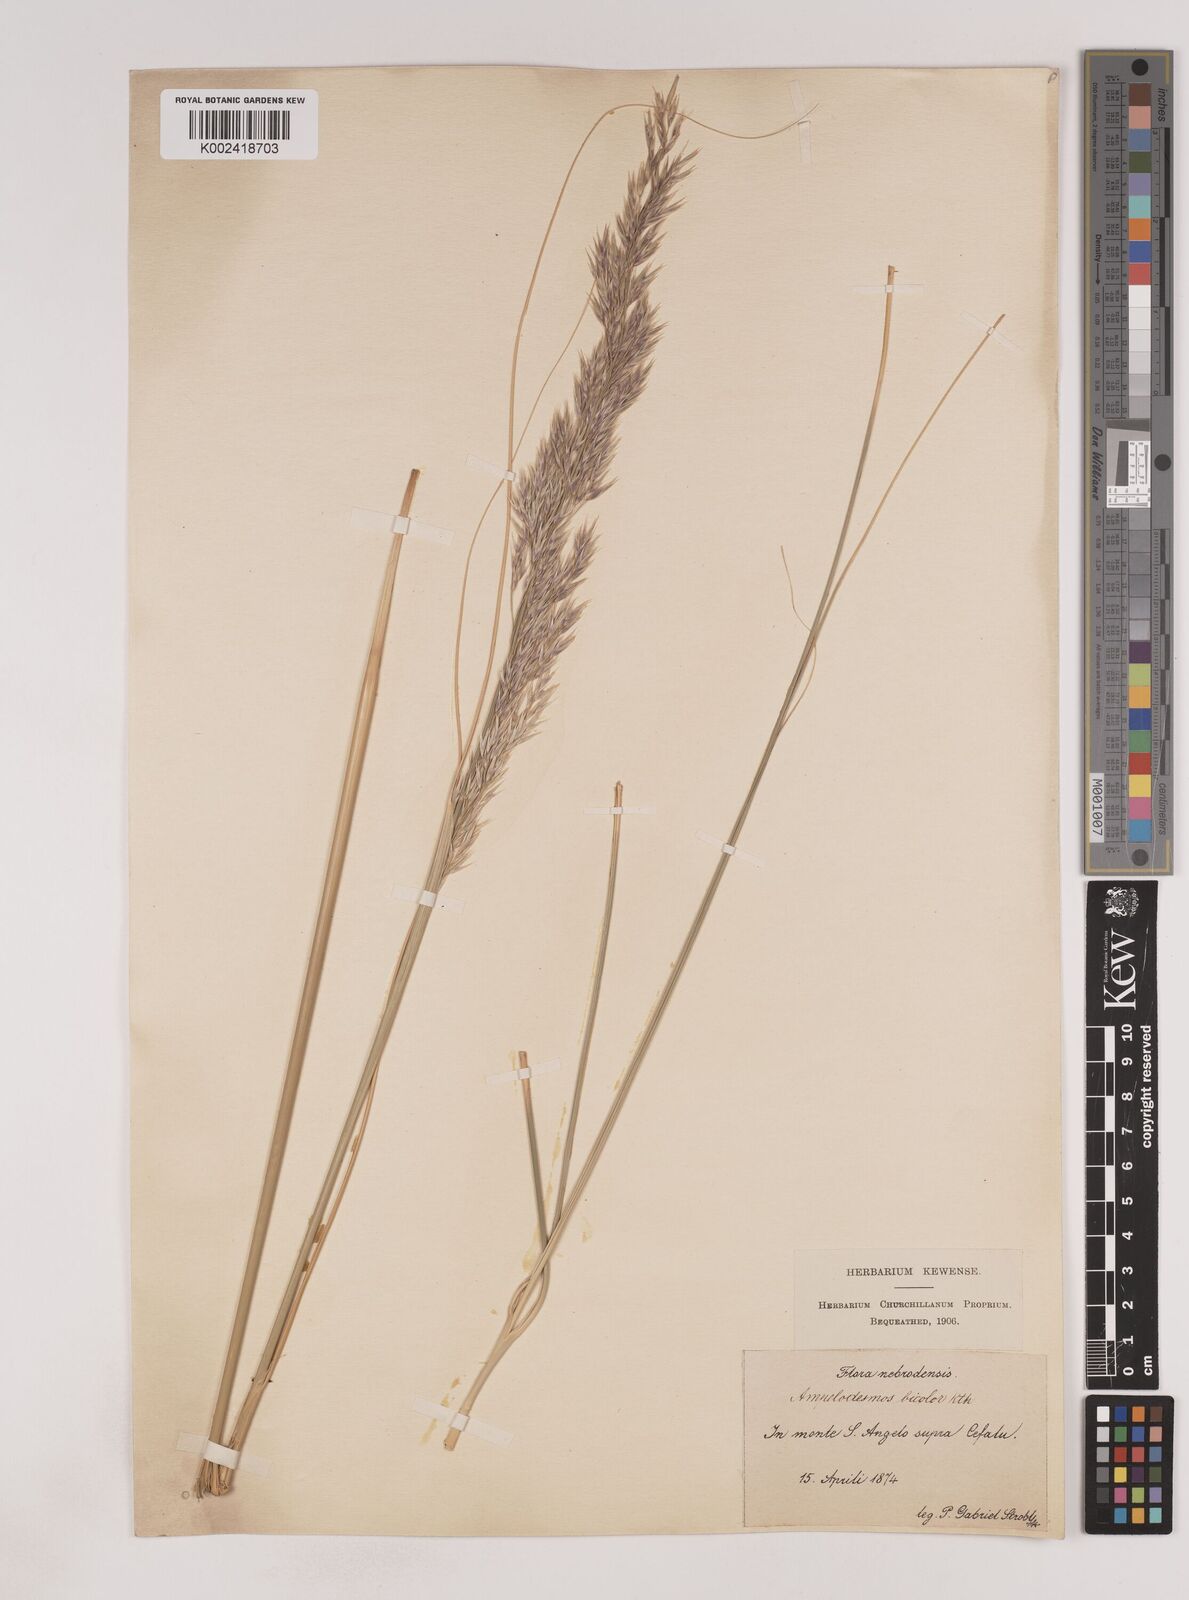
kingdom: Plantae
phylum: Tracheophyta
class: Liliopsida
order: Poales
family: Poaceae
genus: Ampelodesmos
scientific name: Ampelodesmos mauritanicus
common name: Mauritanian grass
